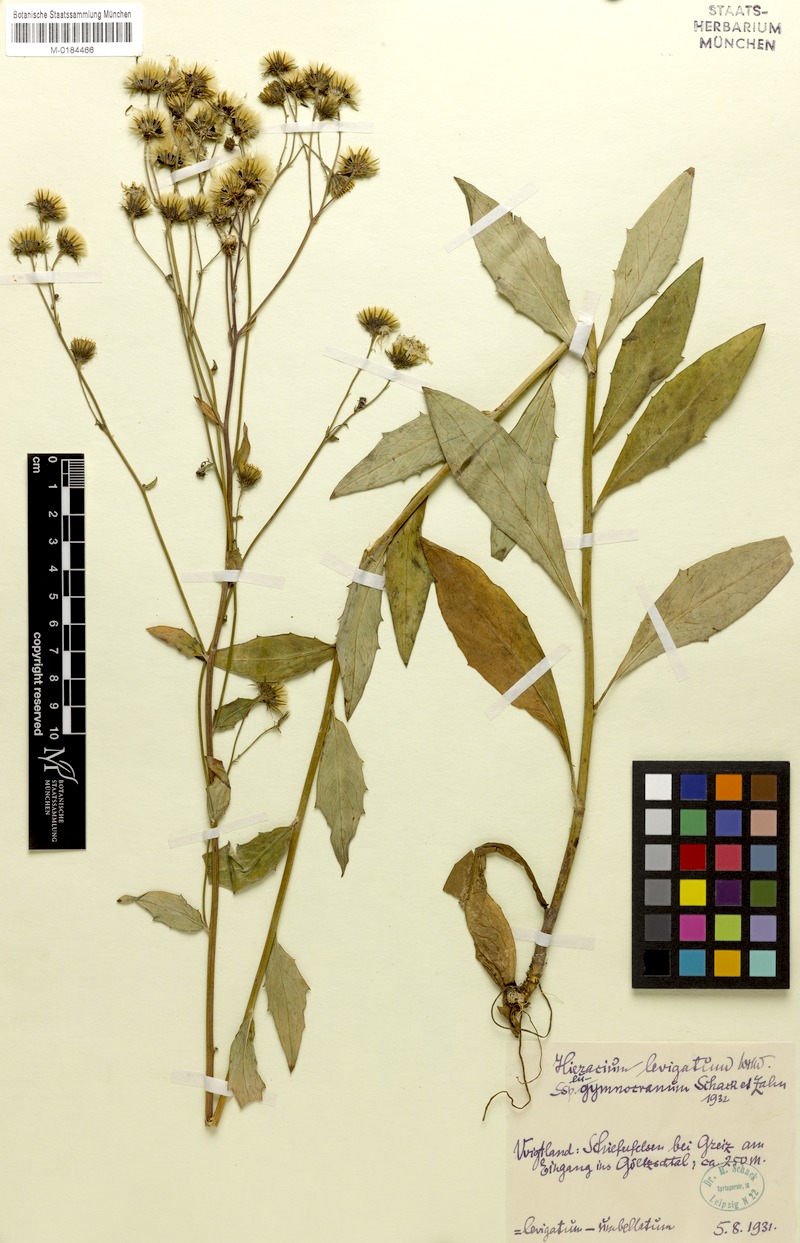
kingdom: Plantae
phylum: Tracheophyta
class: Magnoliopsida
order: Asterales
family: Asteraceae
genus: Hieracium
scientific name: Hieracium laevigatum
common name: Smooth hawkweed
